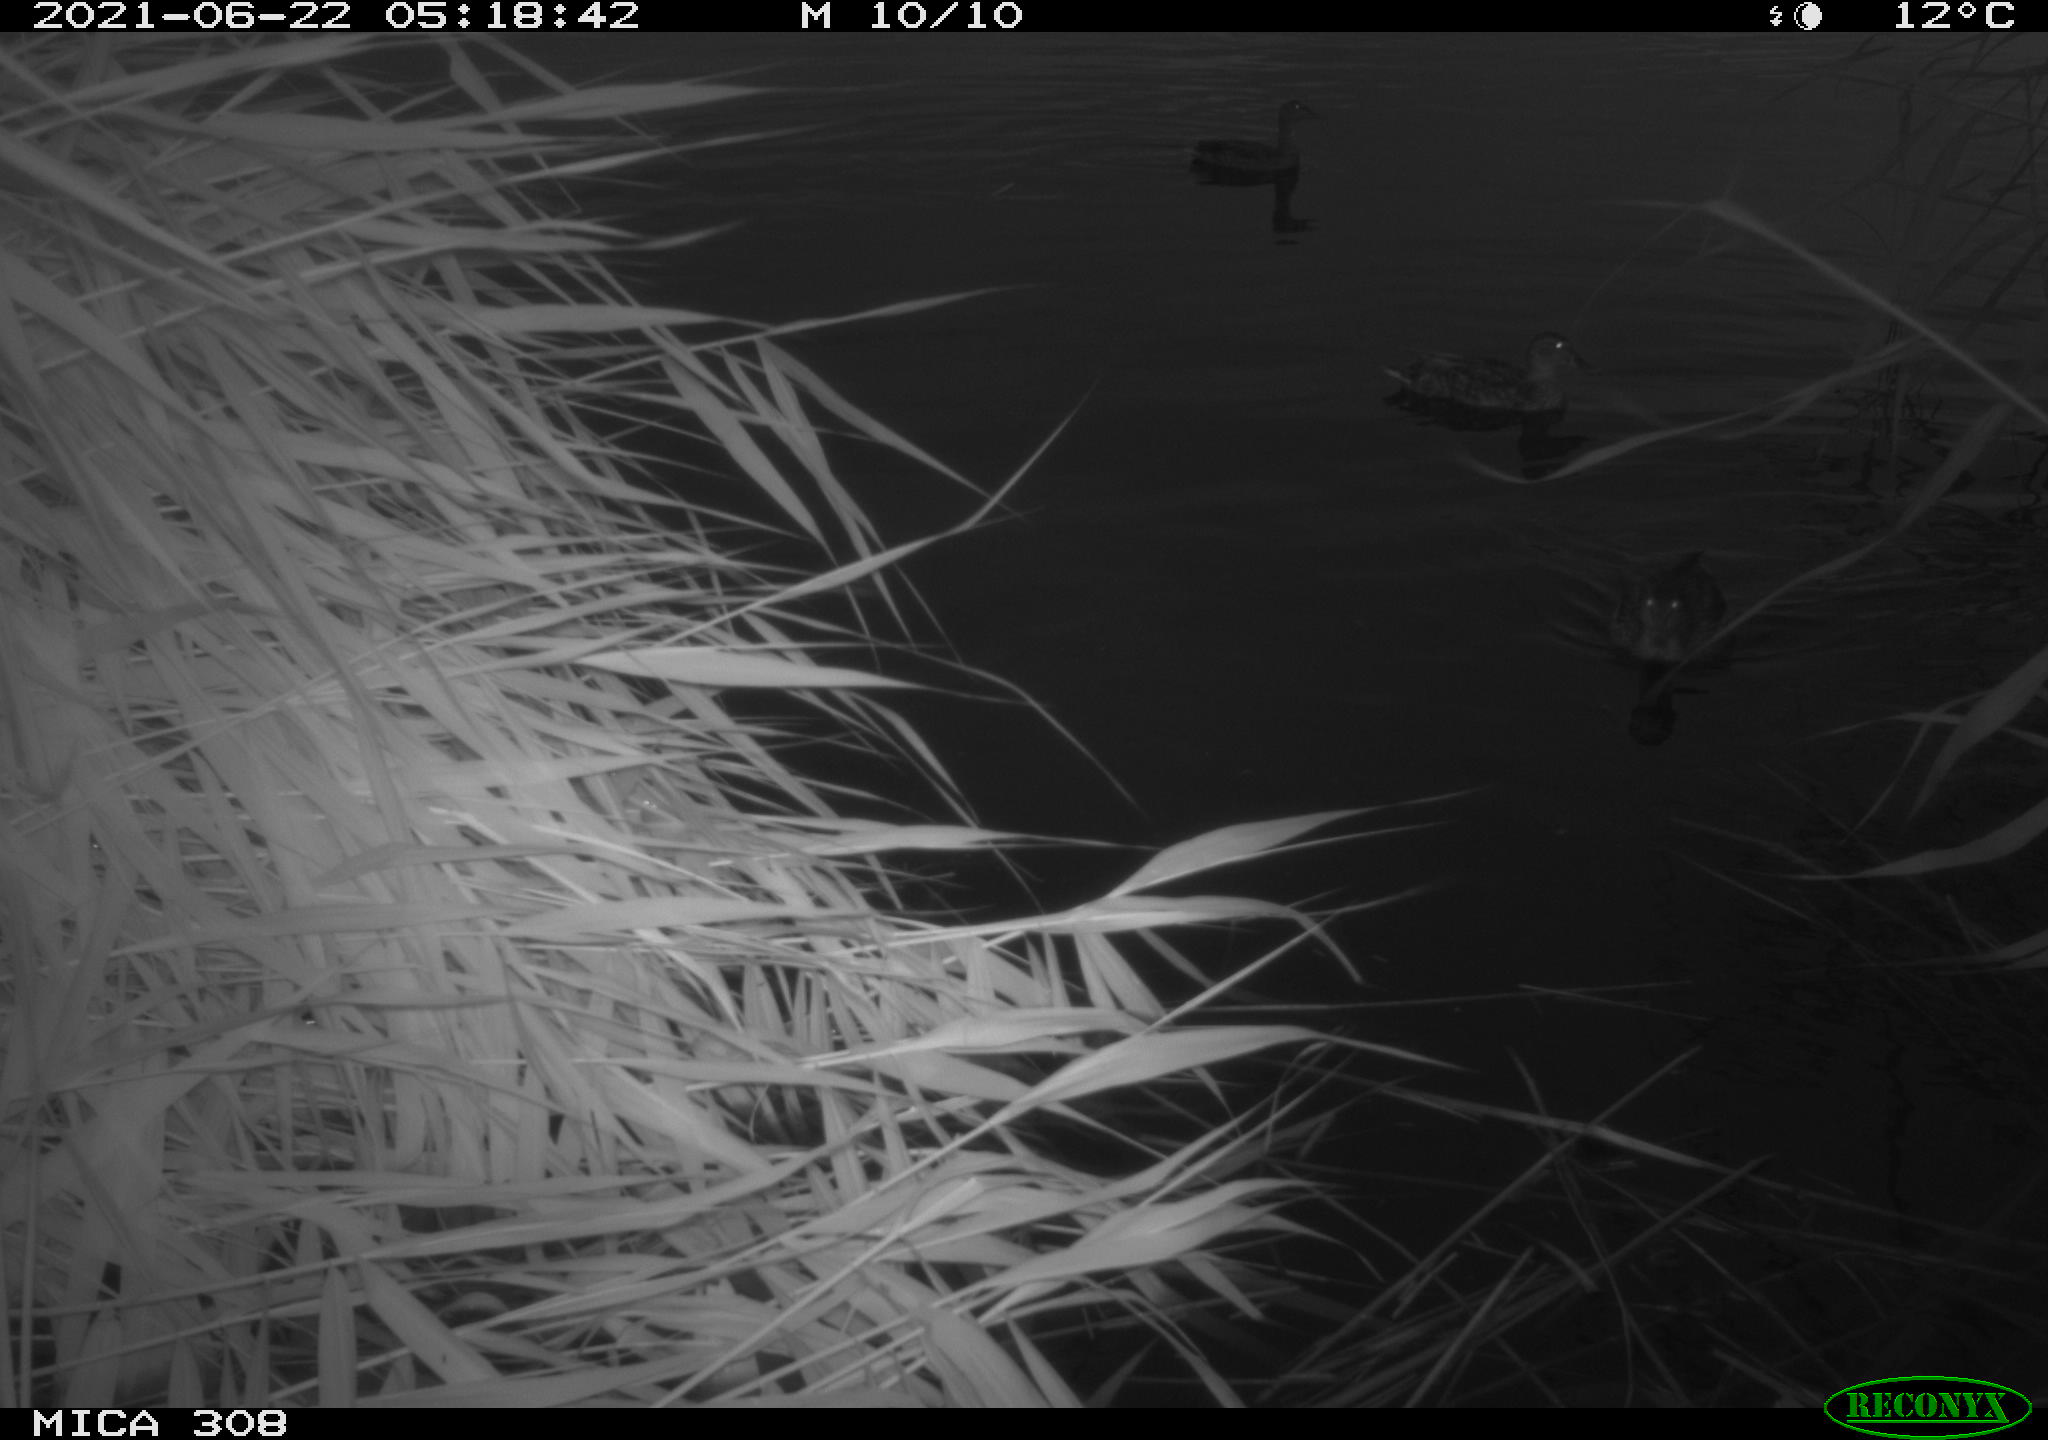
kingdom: Animalia
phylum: Chordata
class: Aves
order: Anseriformes
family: Anatidae
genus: Anas
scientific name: Anas platyrhynchos
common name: Mallard
